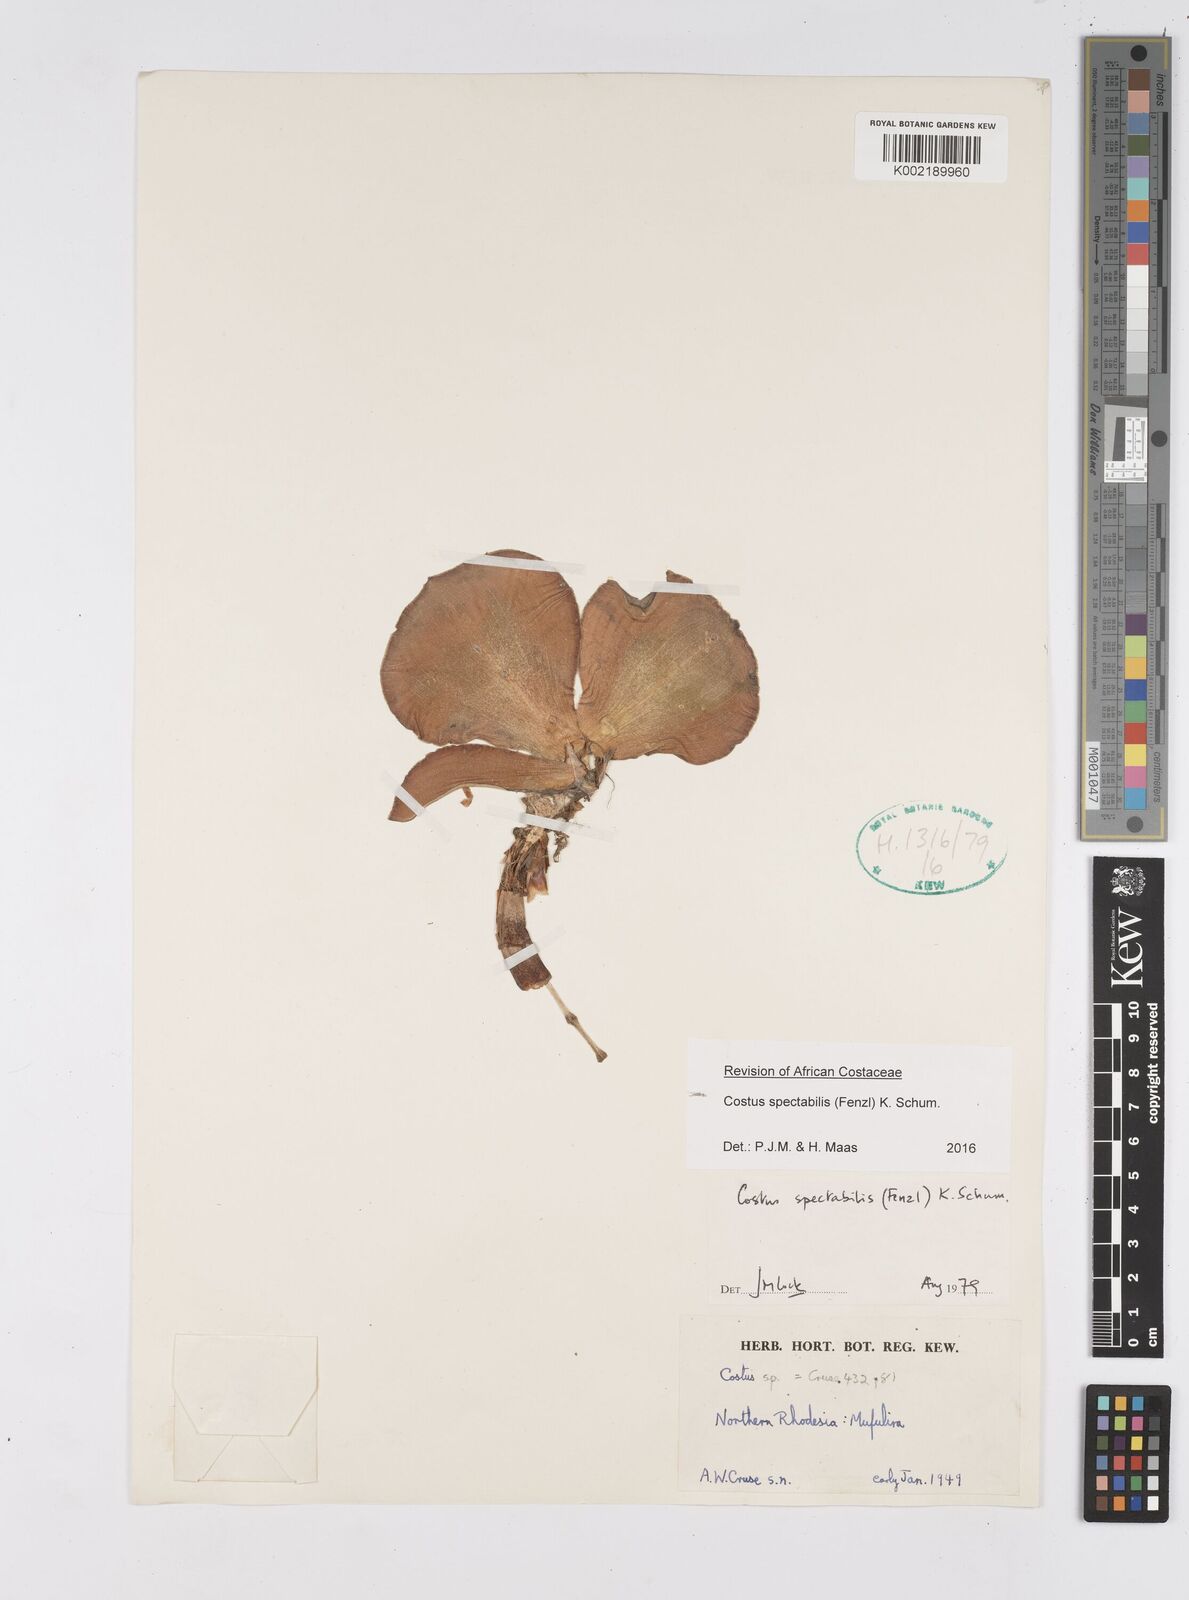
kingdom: Plantae
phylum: Tracheophyta
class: Liliopsida
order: Zingiberales
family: Costaceae
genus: Costus
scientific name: Costus spectabilis
